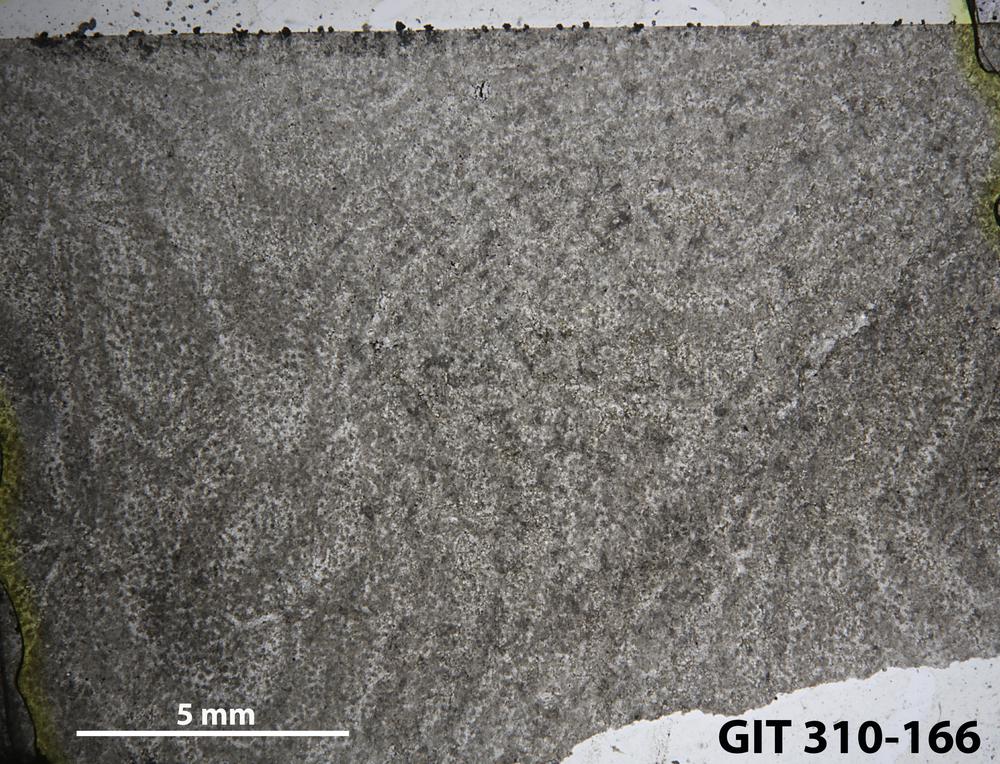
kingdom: Animalia
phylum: Porifera
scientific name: Porifera
